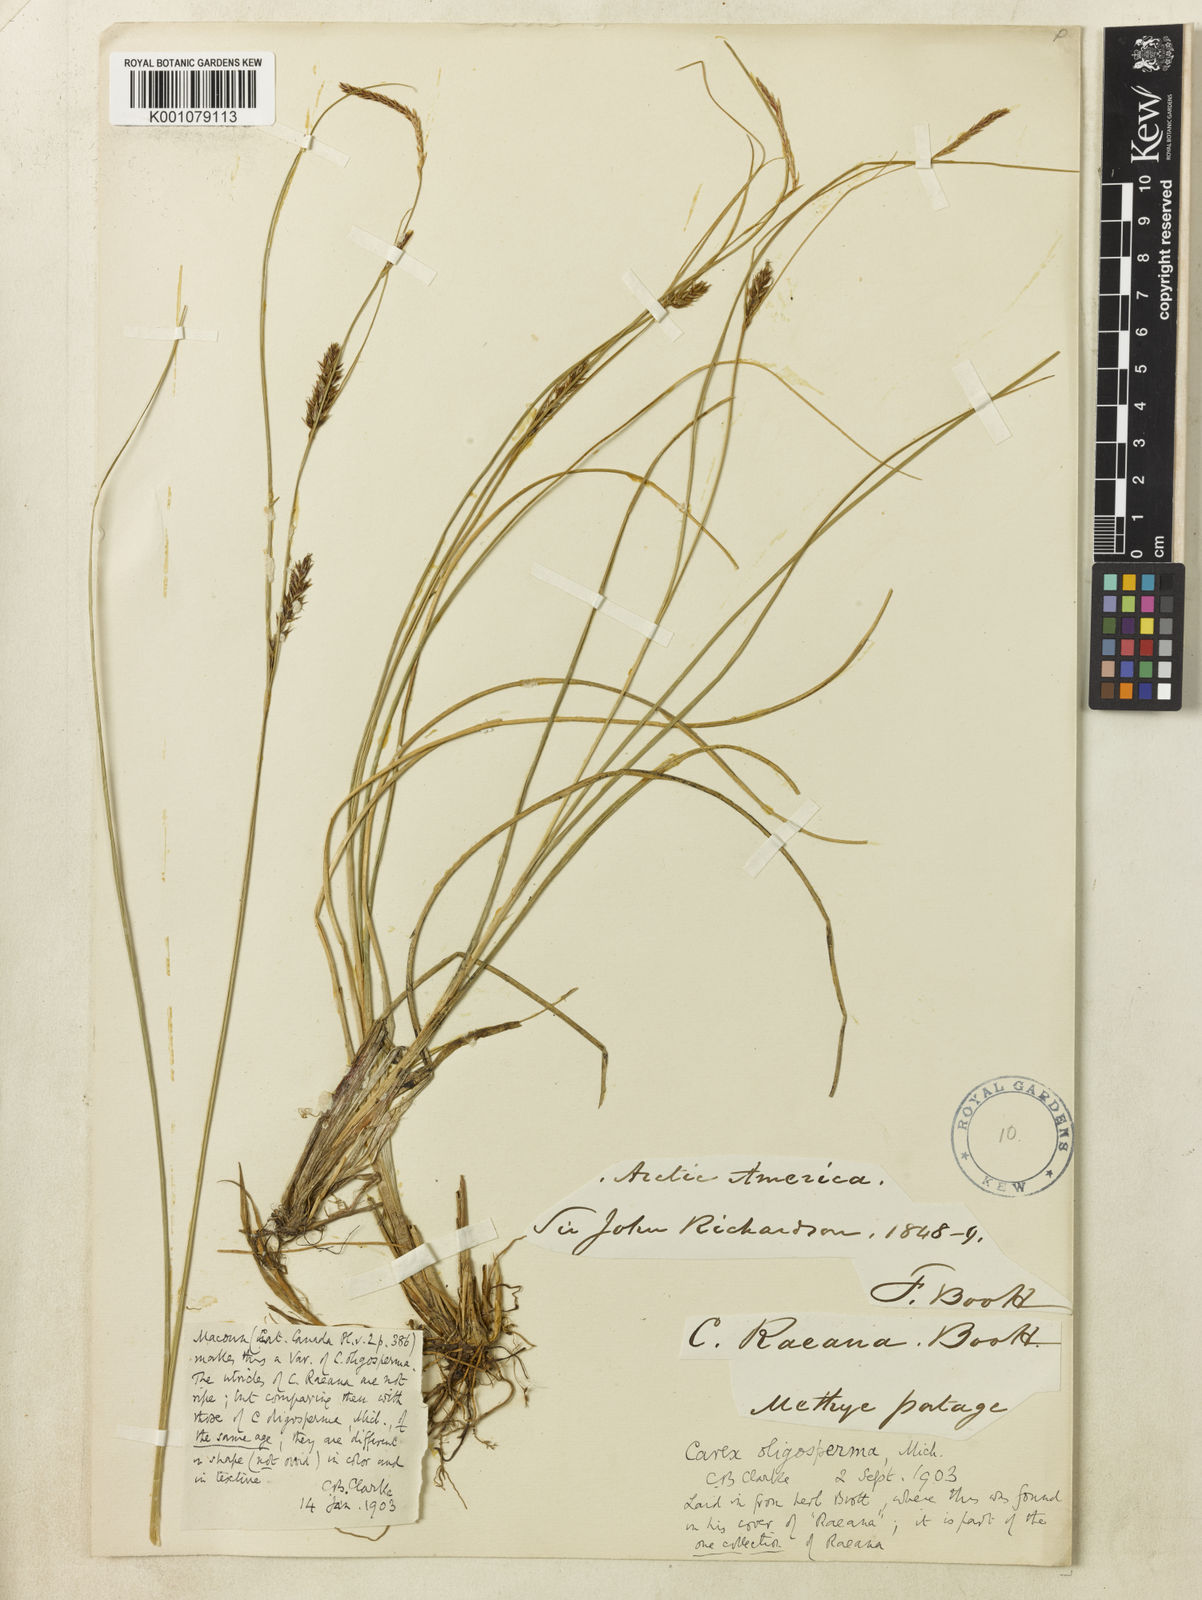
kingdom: Plantae
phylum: Tracheophyta
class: Liliopsida
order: Poales
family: Cyperaceae
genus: Carex
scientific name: Carex vesicaria
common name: Bladder-sedge
